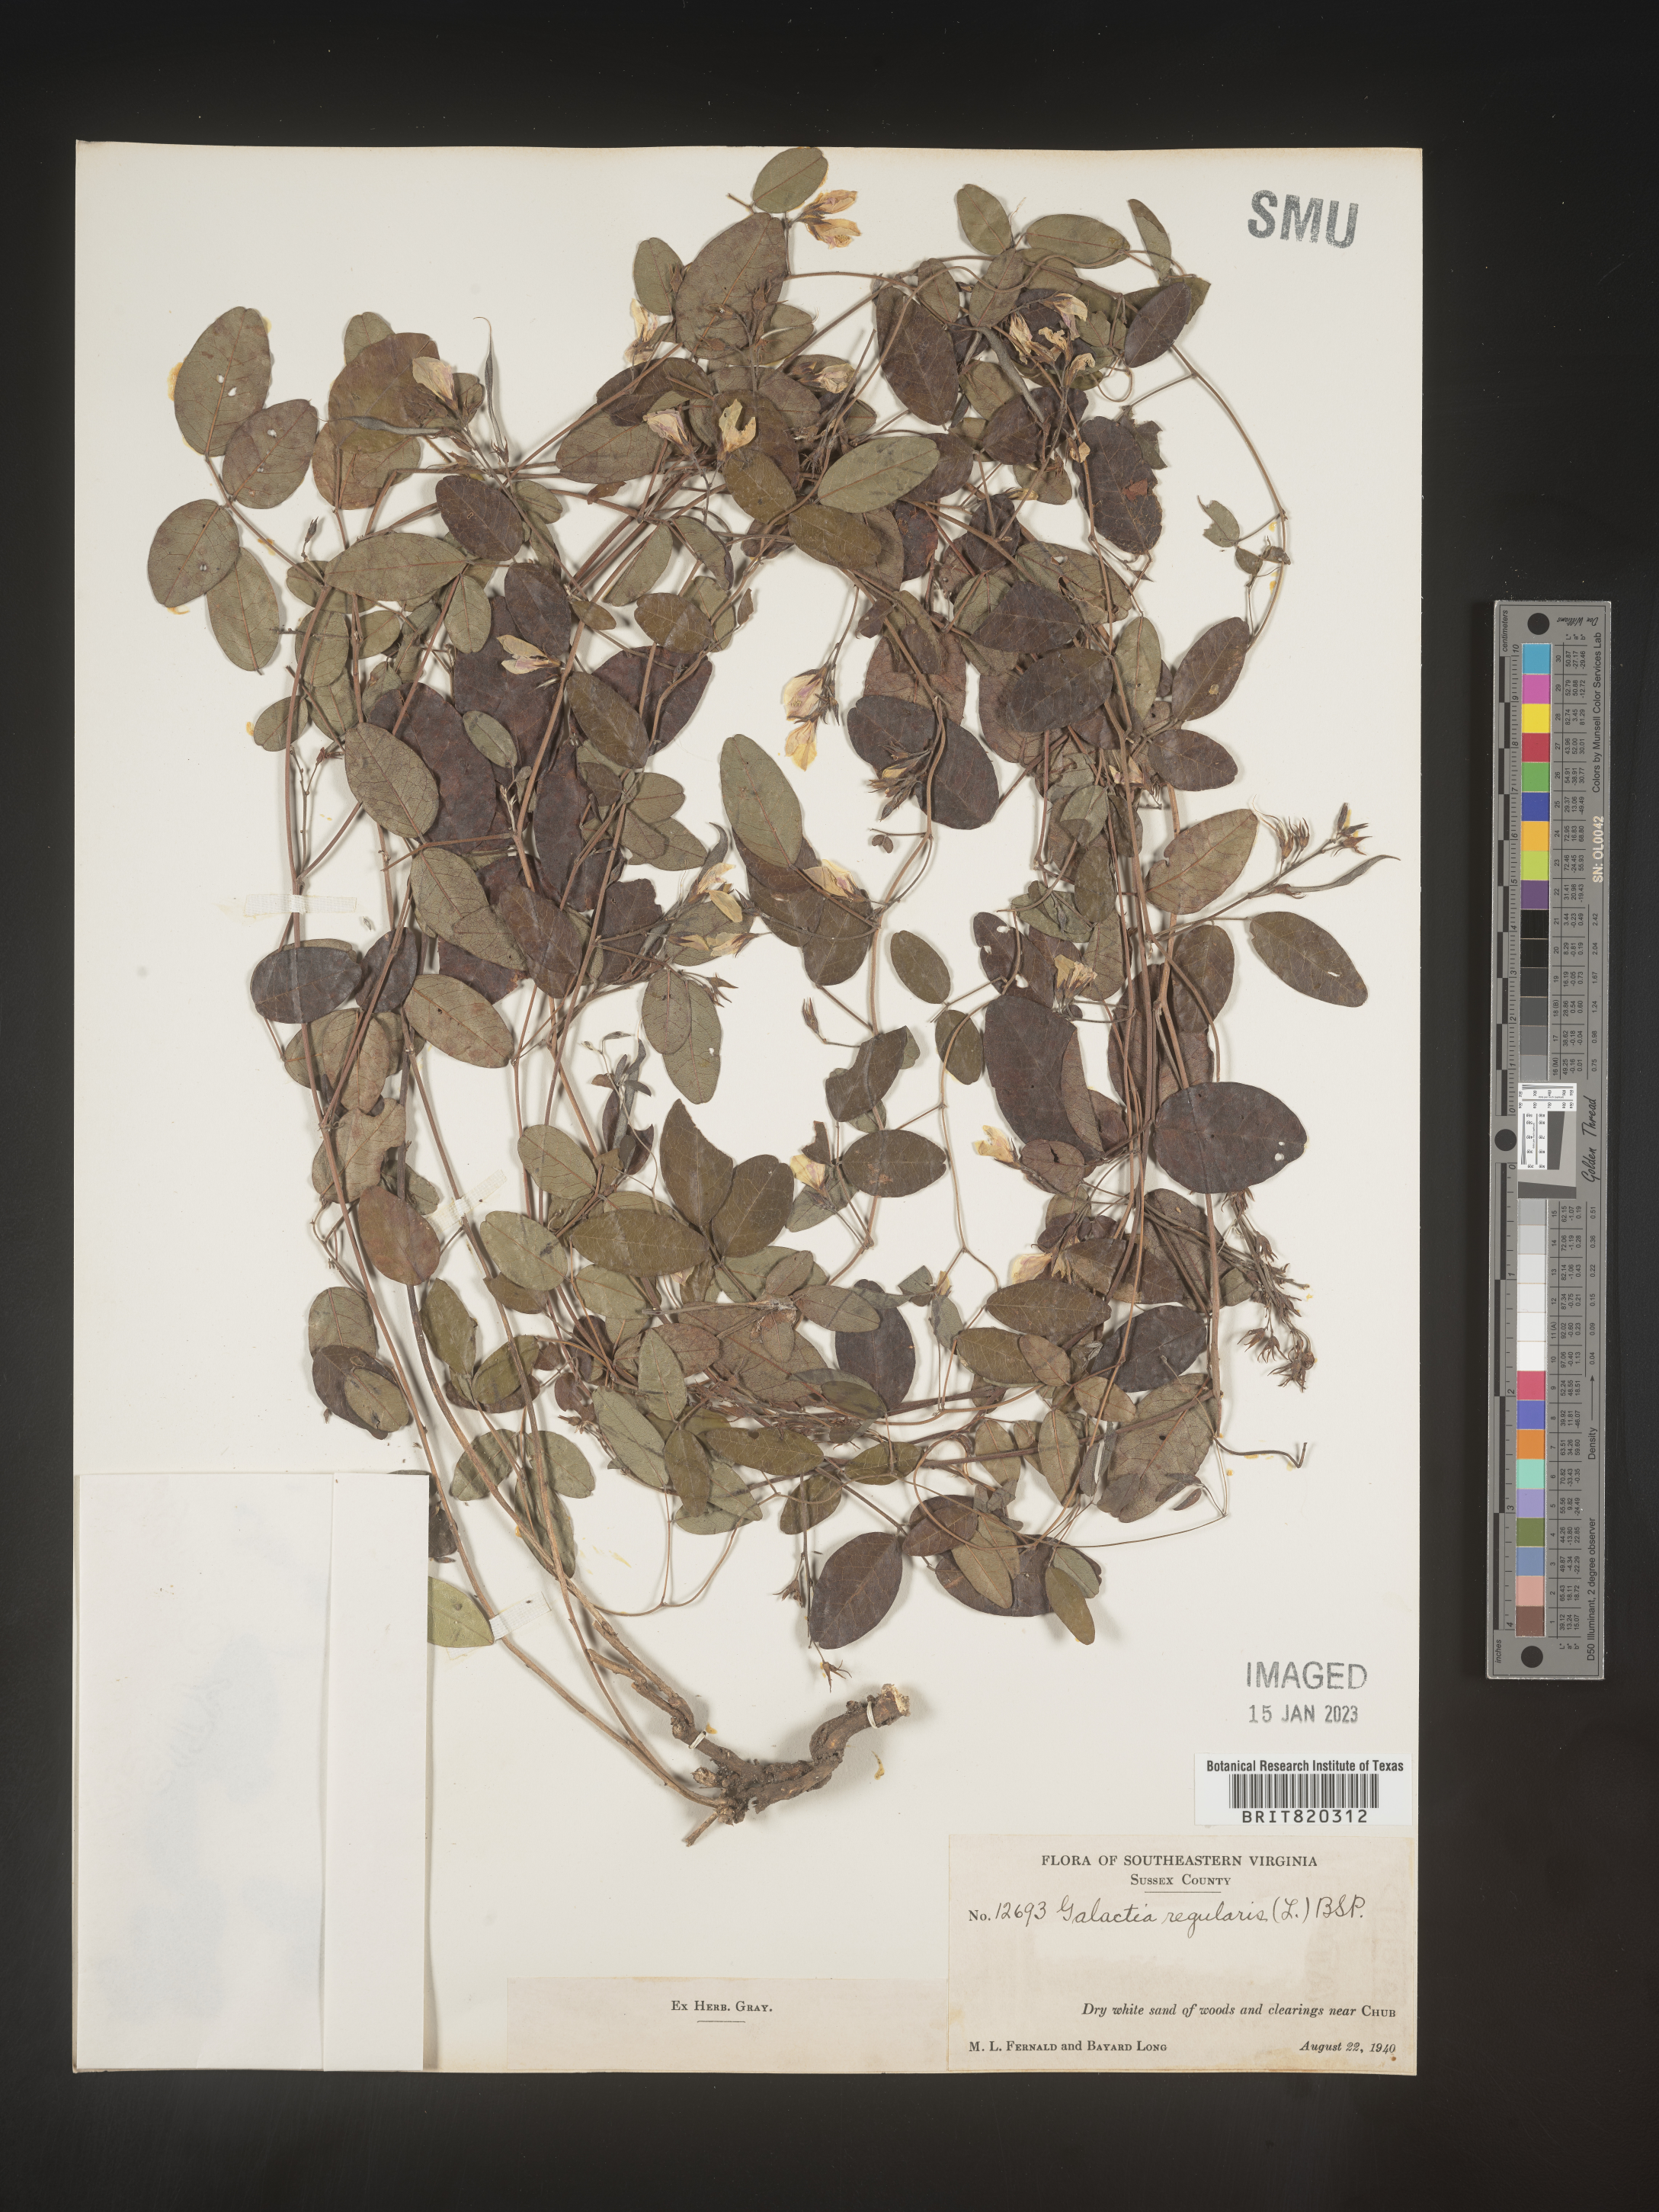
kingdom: Plantae
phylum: Tracheophyta
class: Magnoliopsida
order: Fabales
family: Fabaceae
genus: Galactia
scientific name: Galactia regularis
